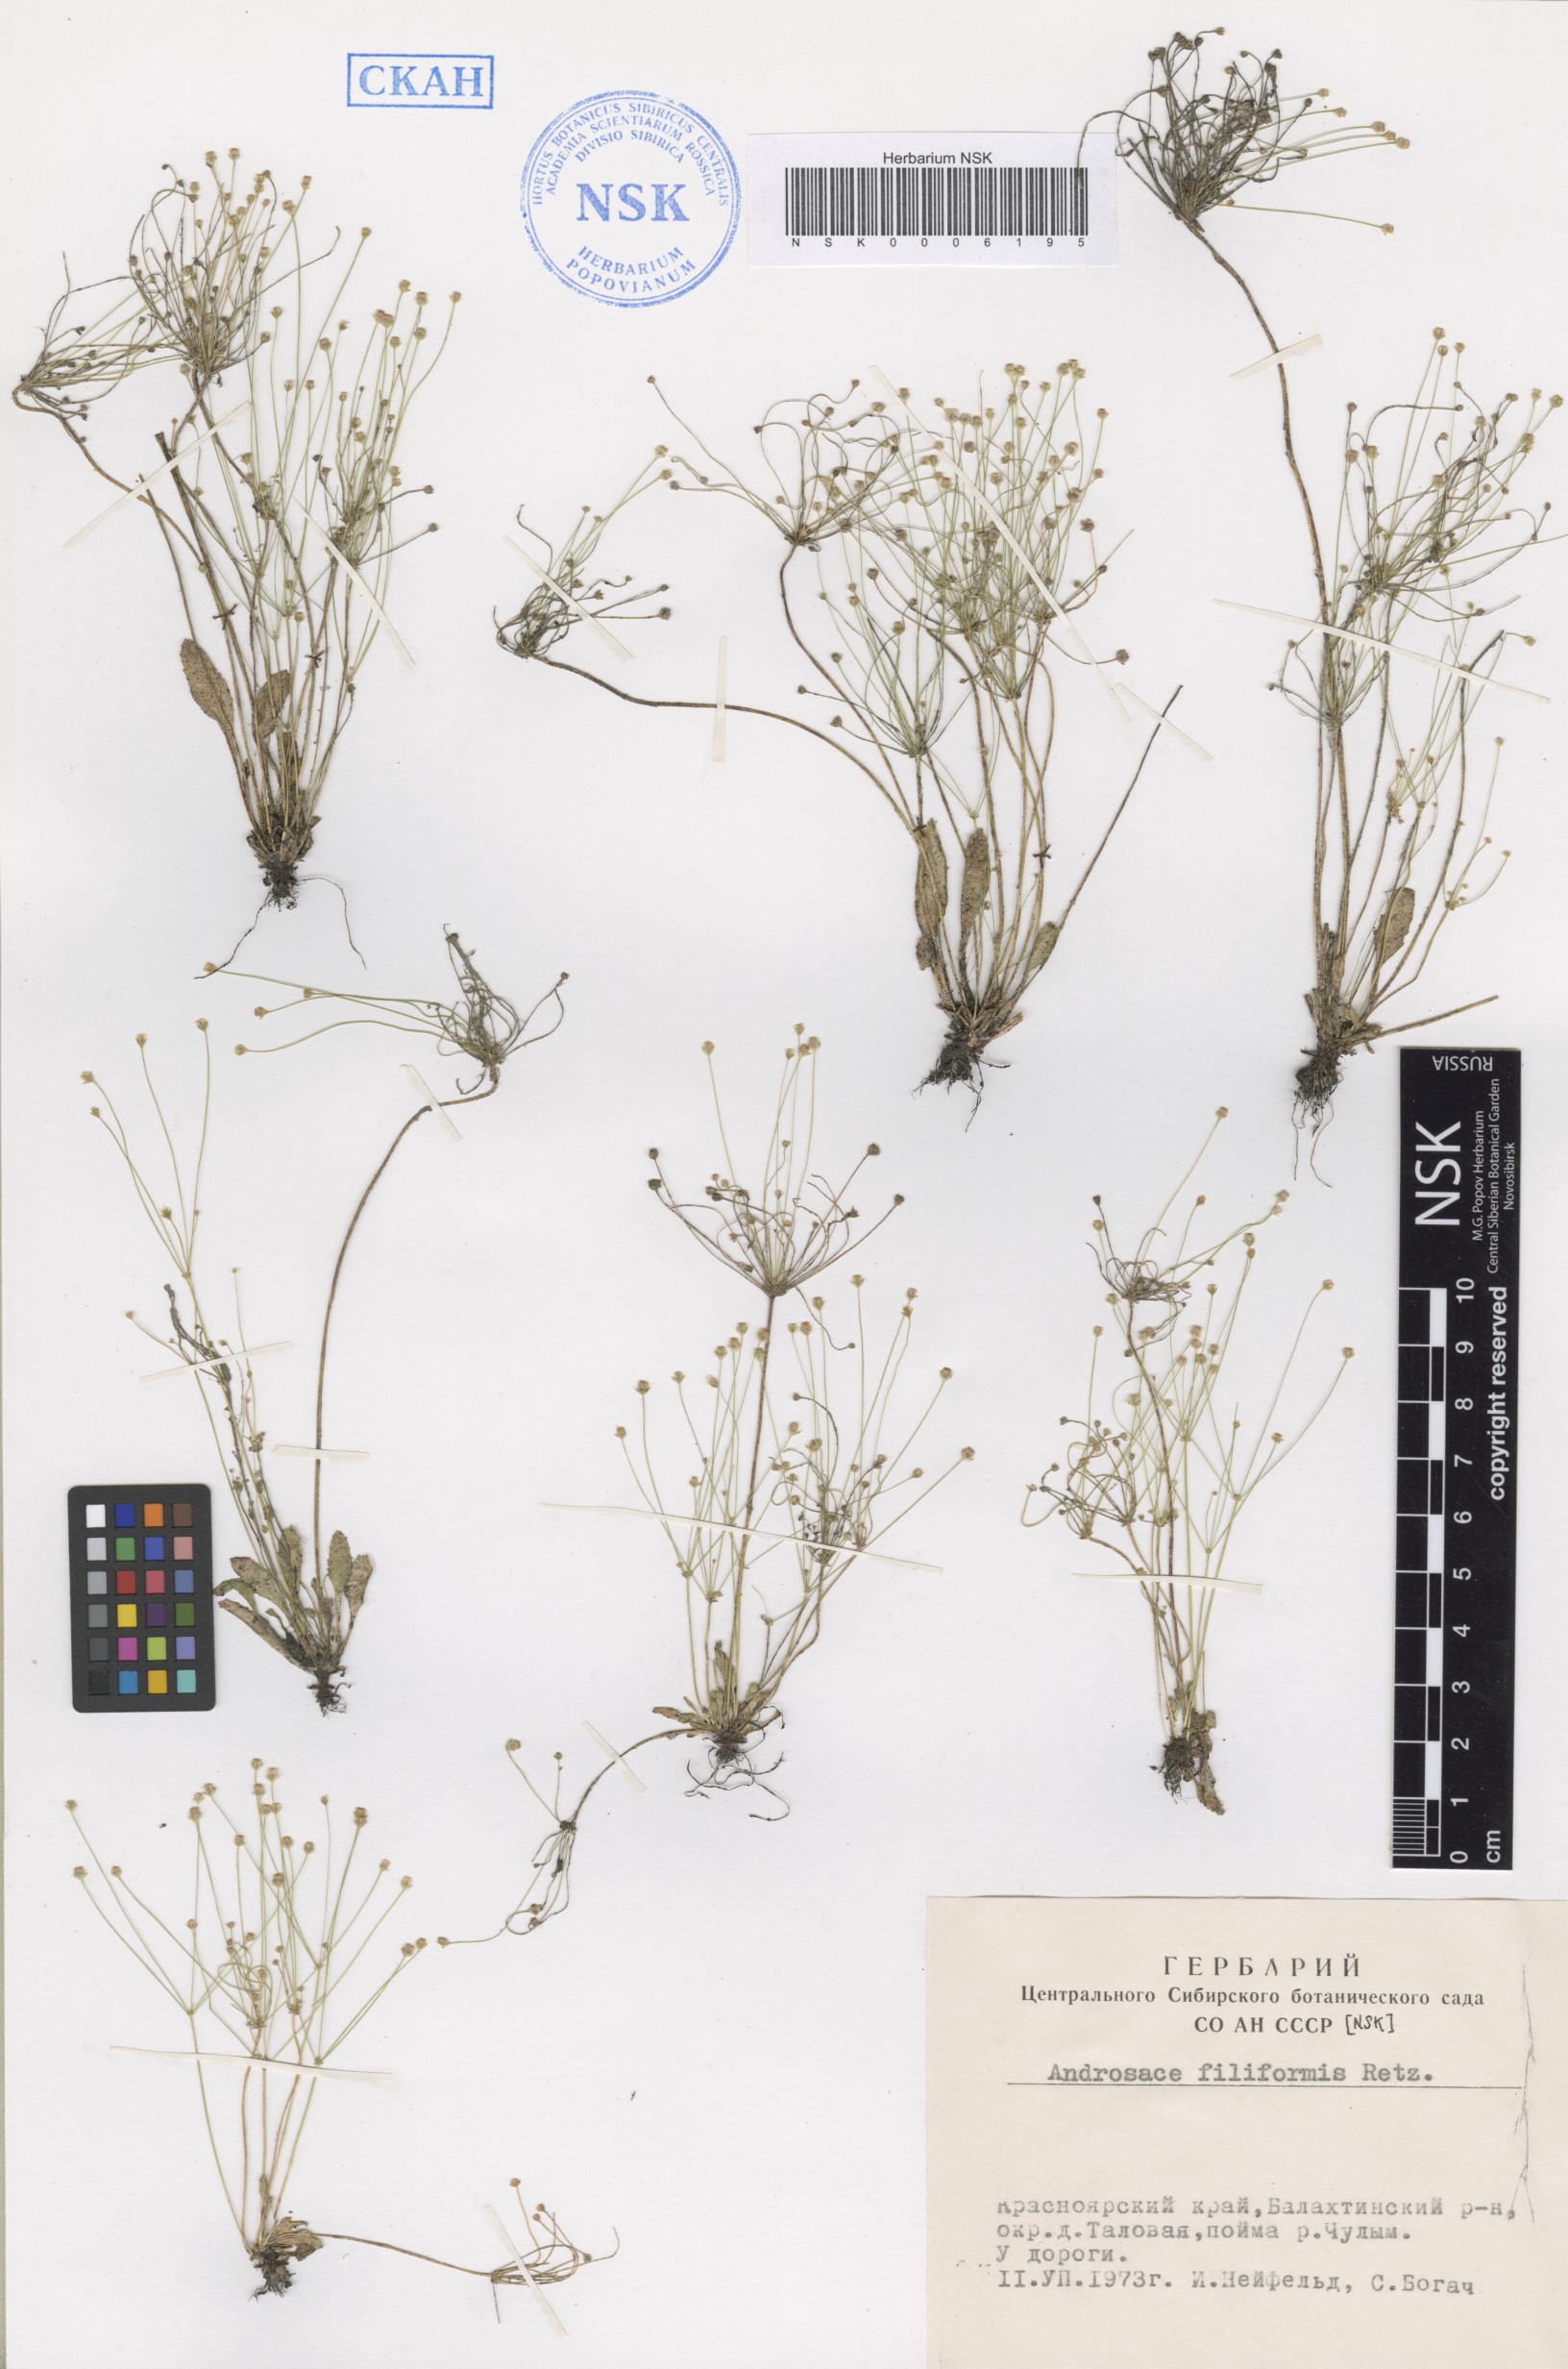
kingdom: Plantae
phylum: Tracheophyta
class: Magnoliopsida
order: Ericales
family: Primulaceae
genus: Androsace
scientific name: Androsace filiformis
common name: Filiform rock jasmine
